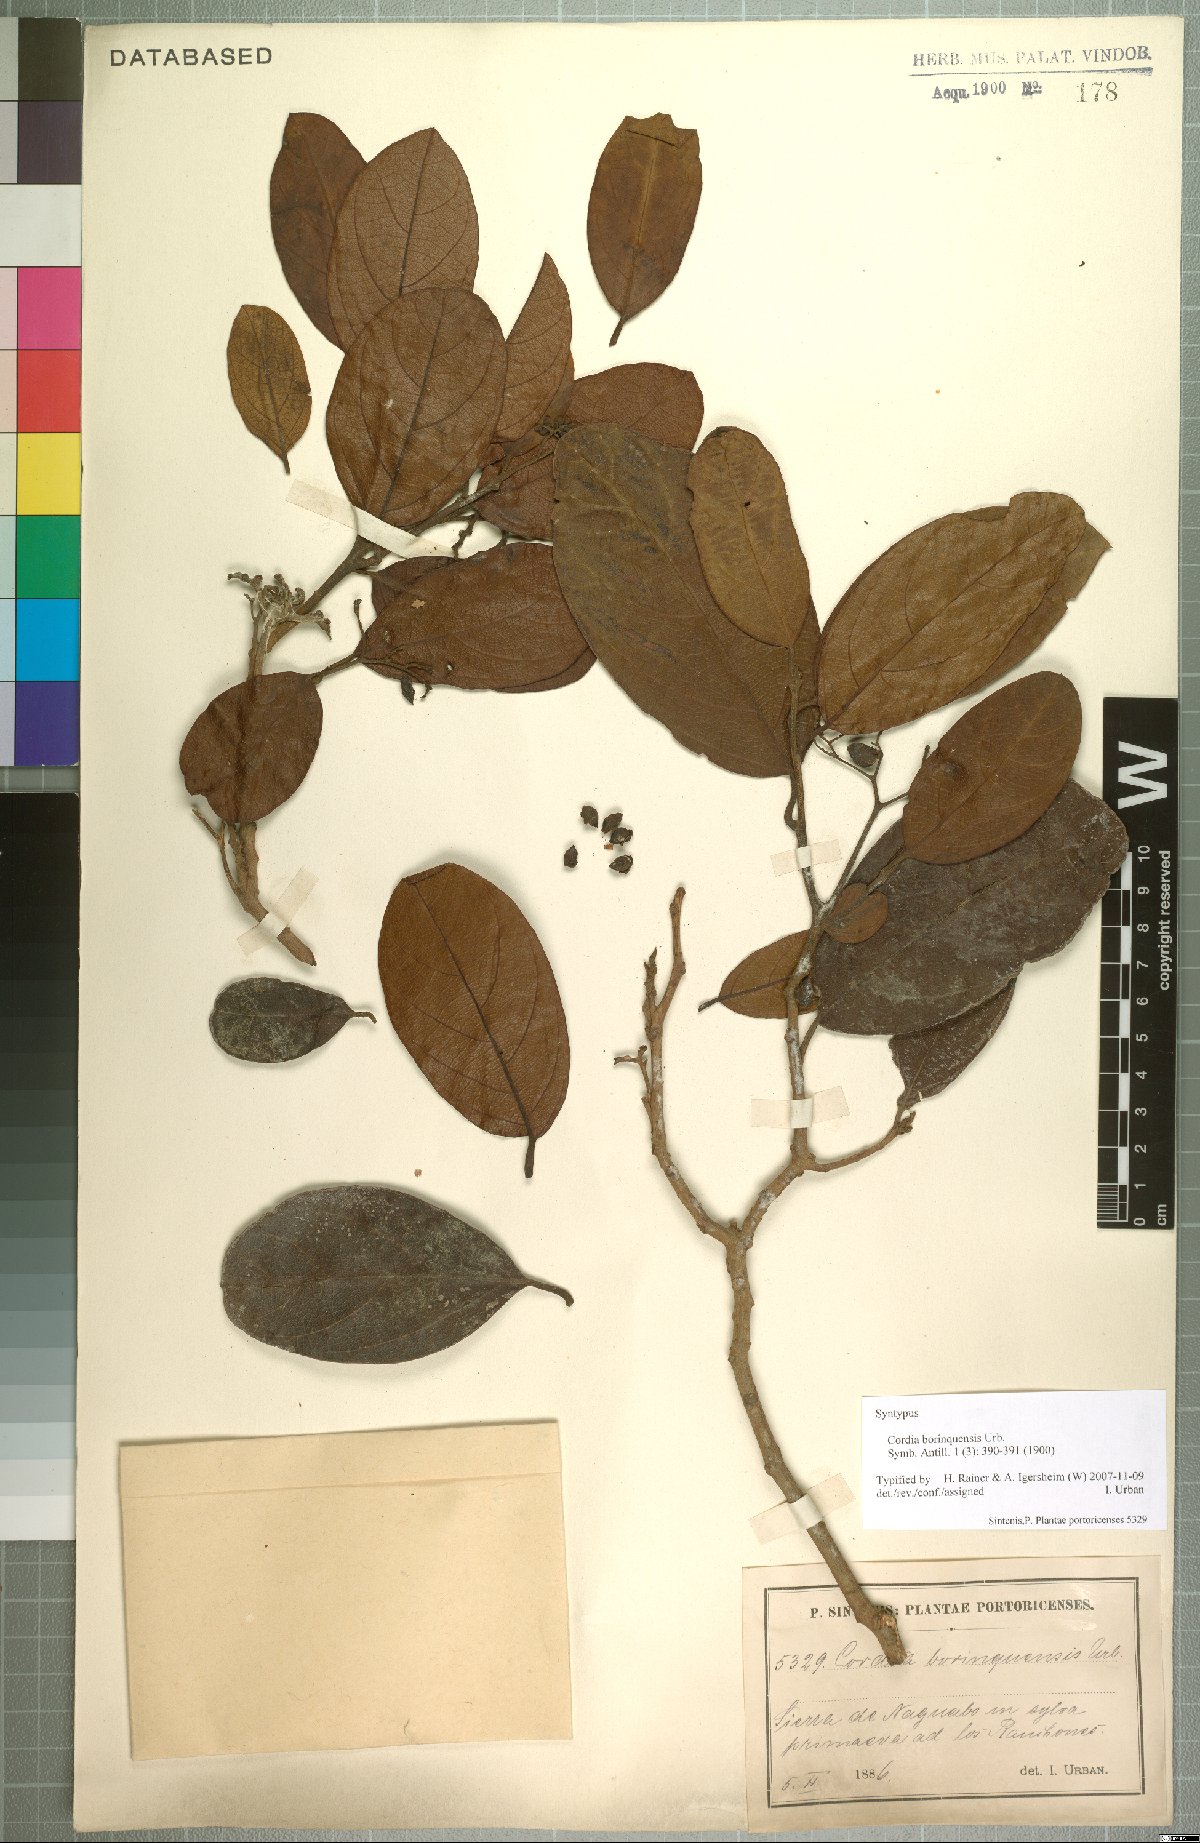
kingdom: Plantae
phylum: Tracheophyta
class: Magnoliopsida
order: Boraginales
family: Cordiaceae
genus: Cordia
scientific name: Cordia borinquensis
